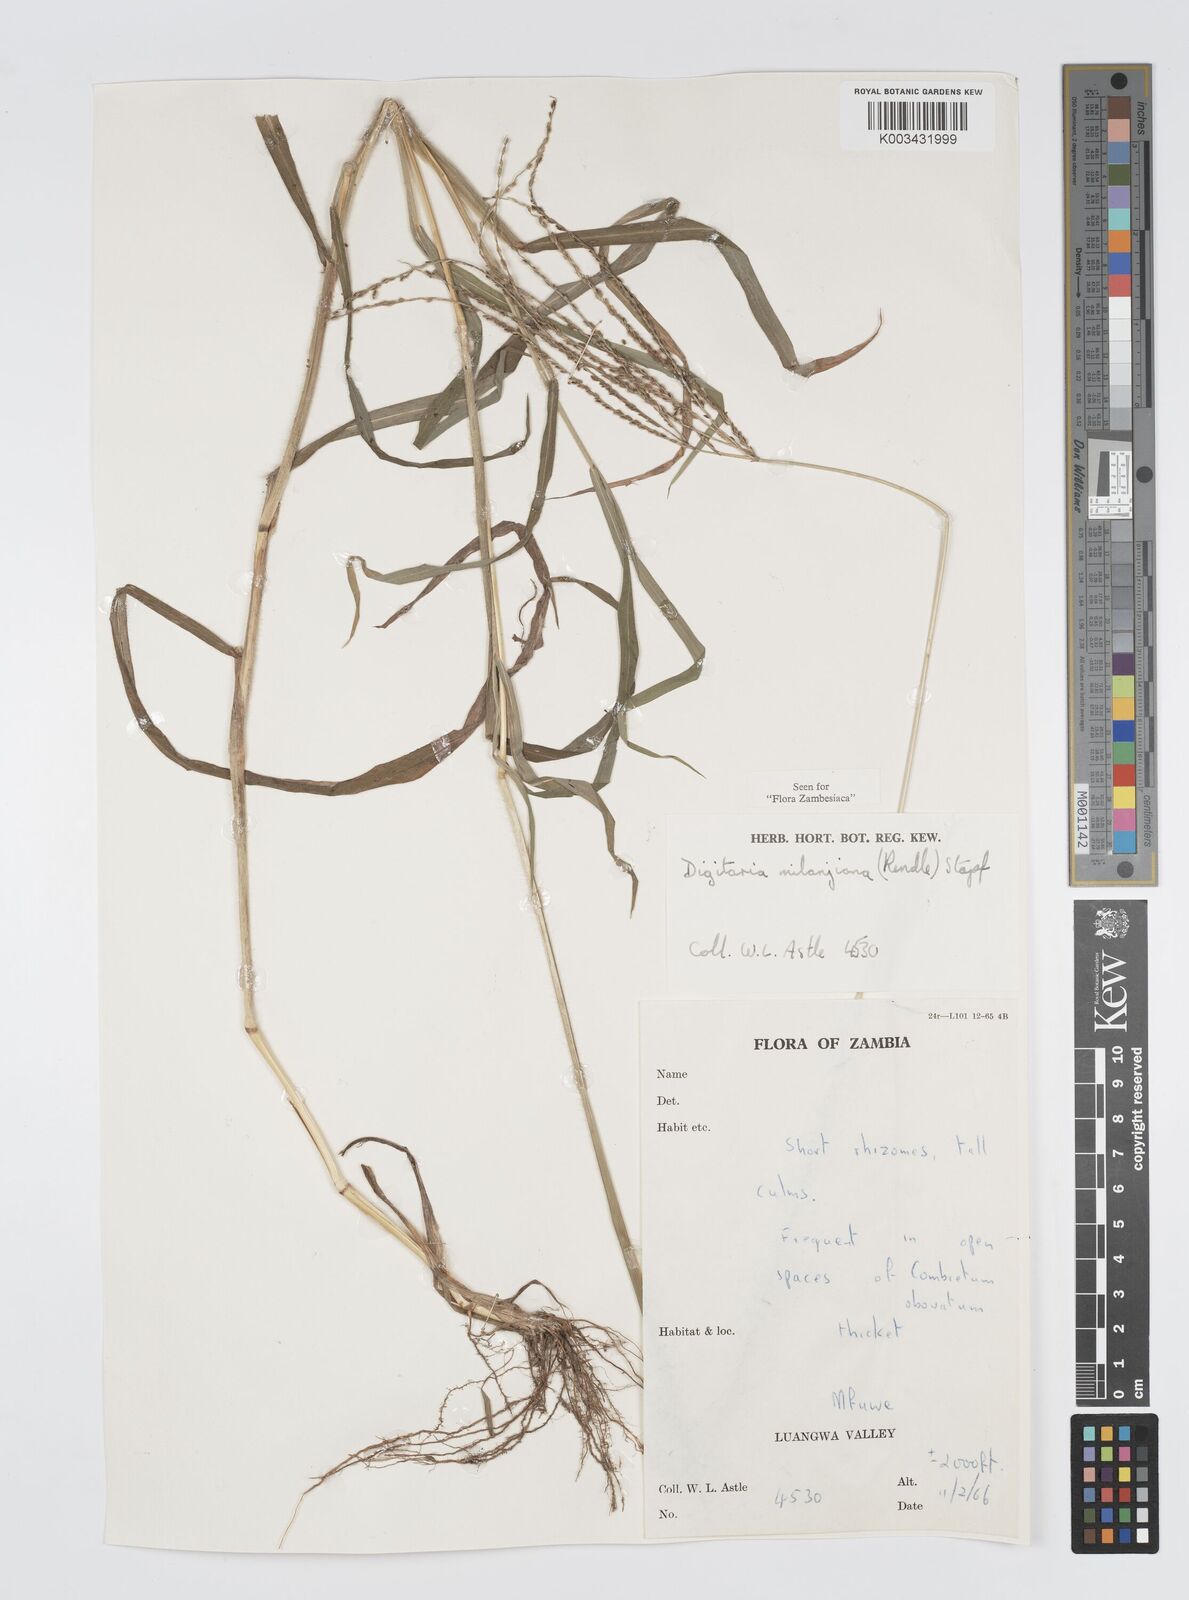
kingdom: Plantae
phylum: Tracheophyta
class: Liliopsida
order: Poales
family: Poaceae
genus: Digitaria
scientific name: Digitaria milanjiana
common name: Madagascar crabgrass
